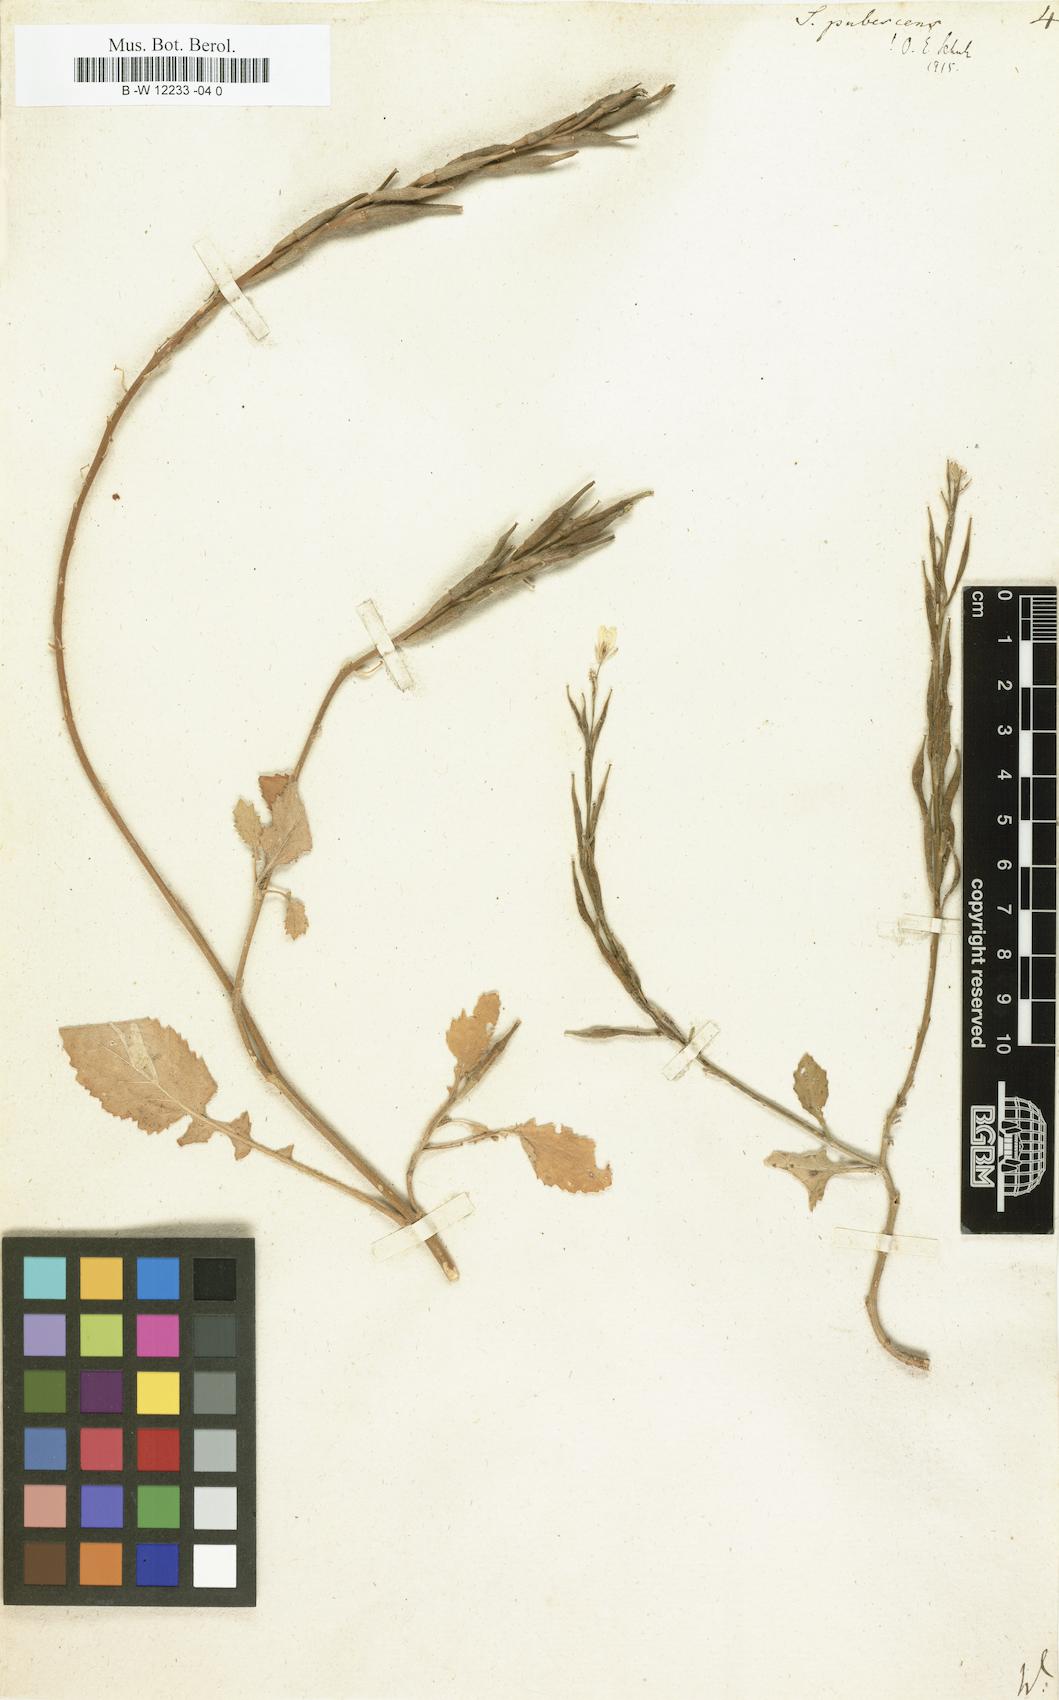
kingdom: Plantae
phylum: Tracheophyta
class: Magnoliopsida
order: Brassicales
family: Brassicaceae
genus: Sinapis
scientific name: Sinapis pubescens
